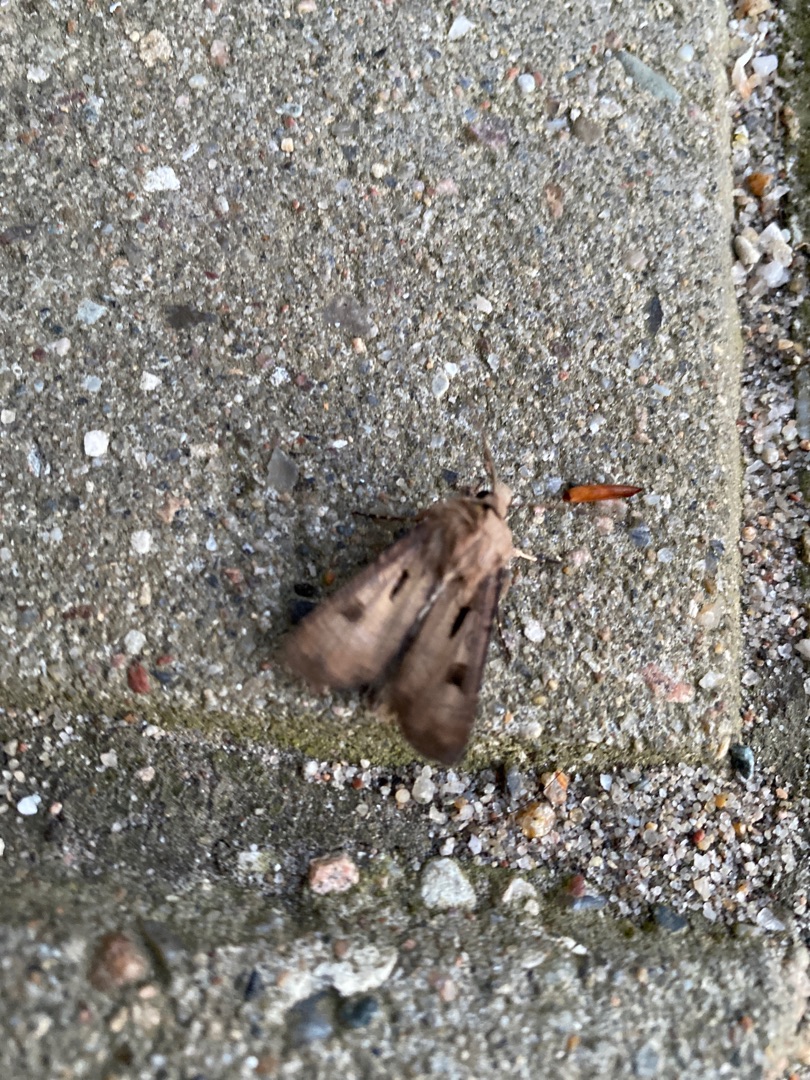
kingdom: Animalia
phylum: Arthropoda
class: Insecta
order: Lepidoptera
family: Noctuidae
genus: Agrotis
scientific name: Agrotis exclamationis
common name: Udråbstegnsugle
